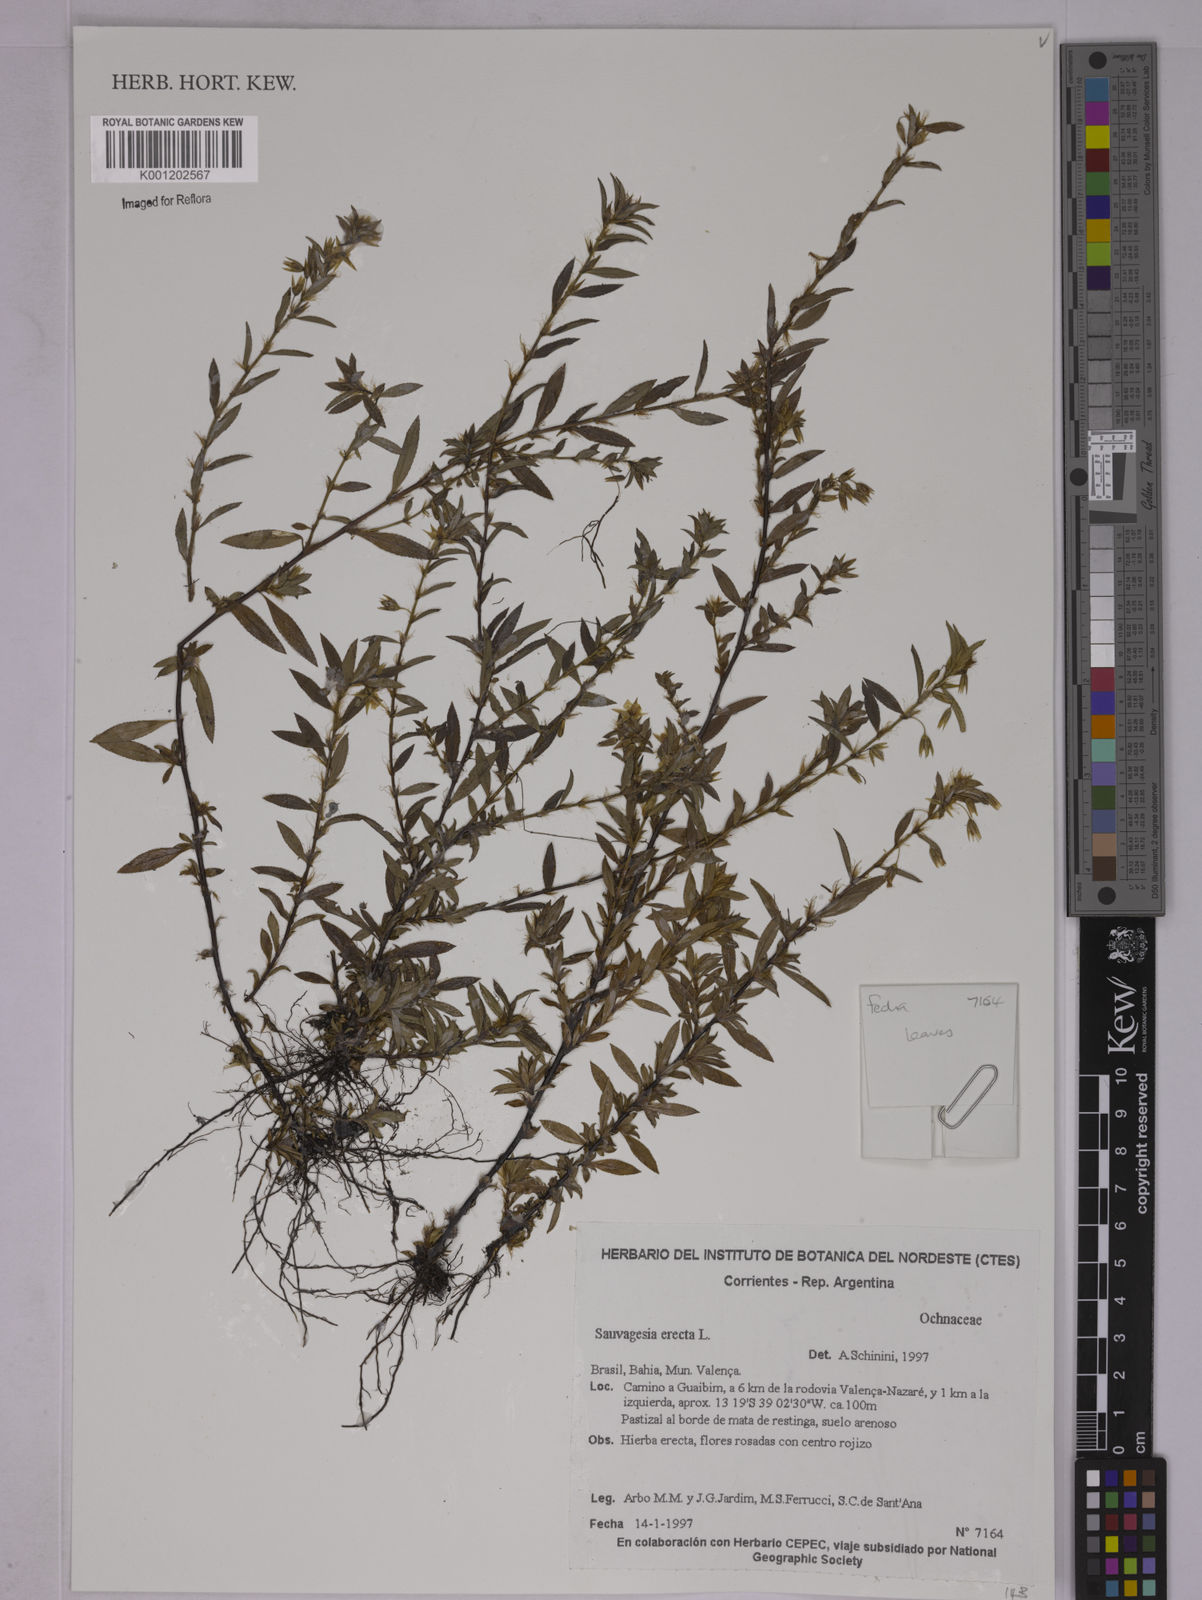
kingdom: Plantae
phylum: Tracheophyta
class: Magnoliopsida
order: Malpighiales
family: Ochnaceae
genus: Sauvagesia
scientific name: Sauvagesia erecta
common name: Creole tea
